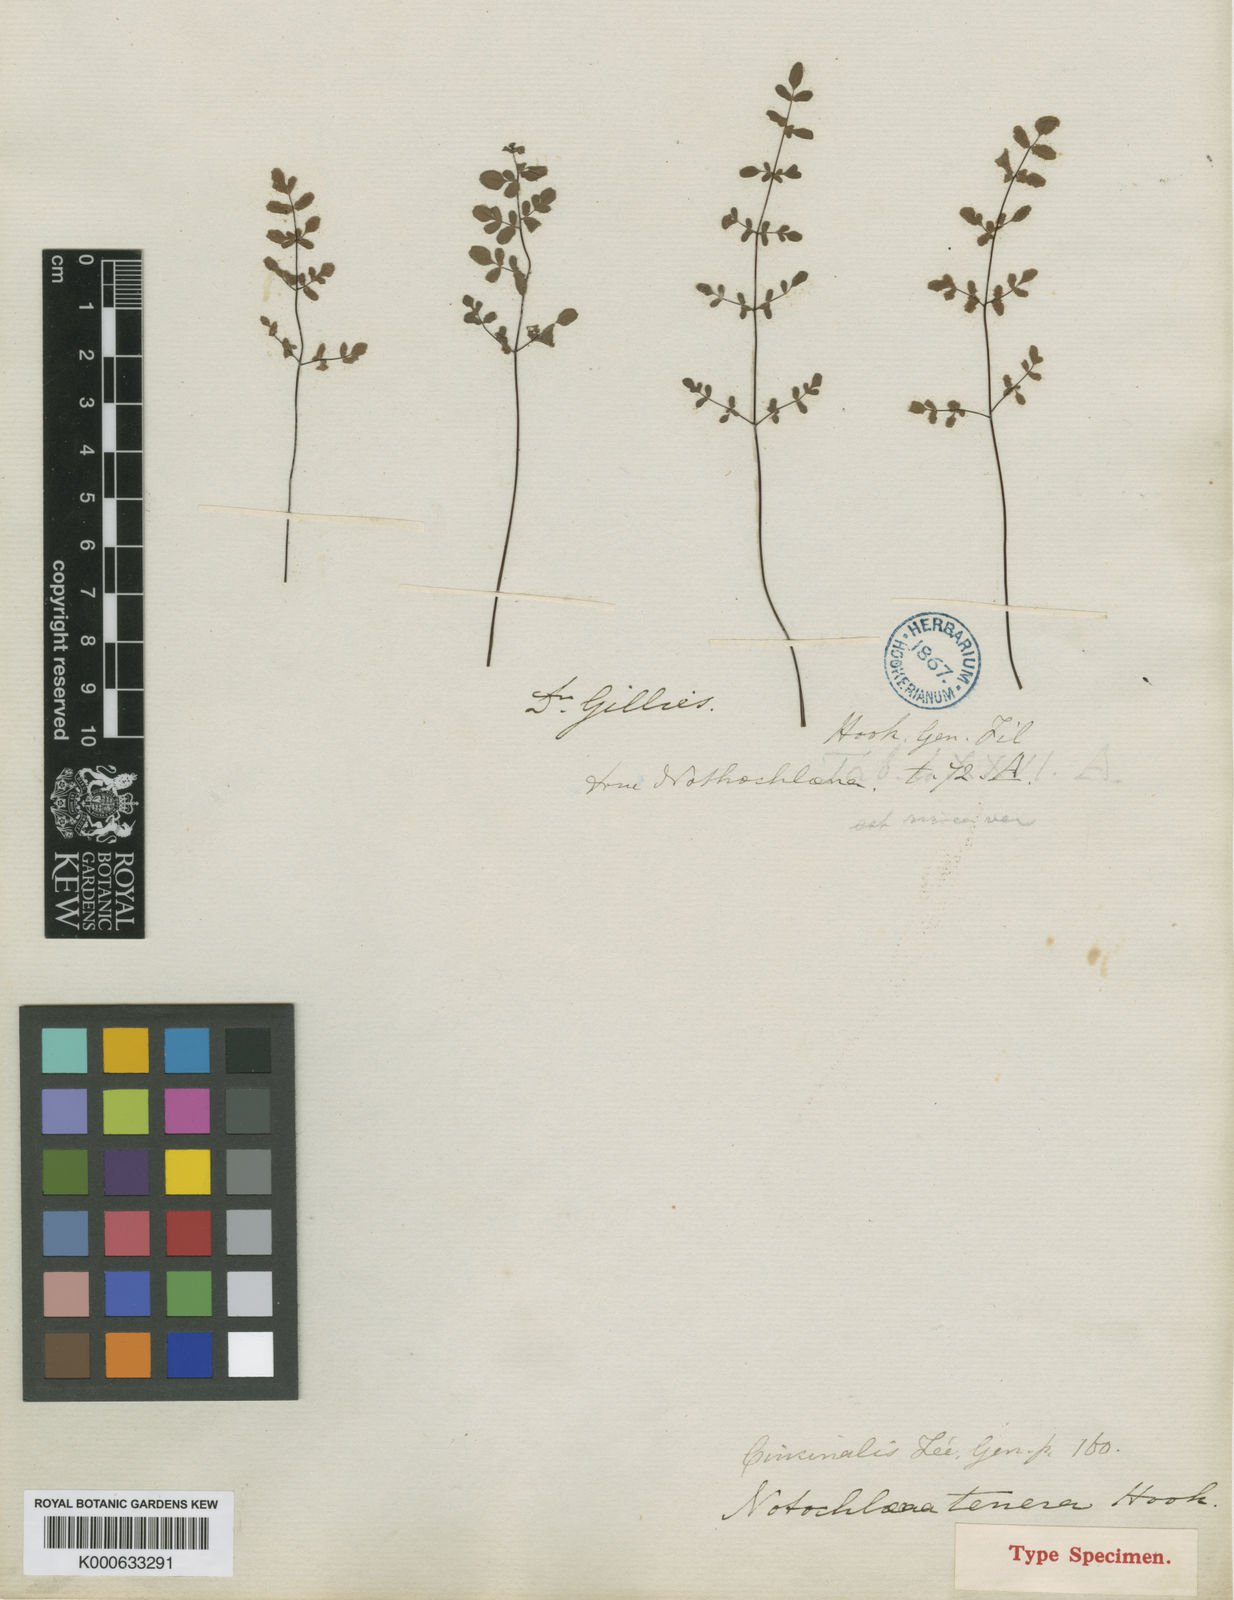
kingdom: Plantae
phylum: Tracheophyta
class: Polypodiopsida
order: Polypodiales
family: Pteridaceae
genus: Cheilanthes
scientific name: Cheilanthes
